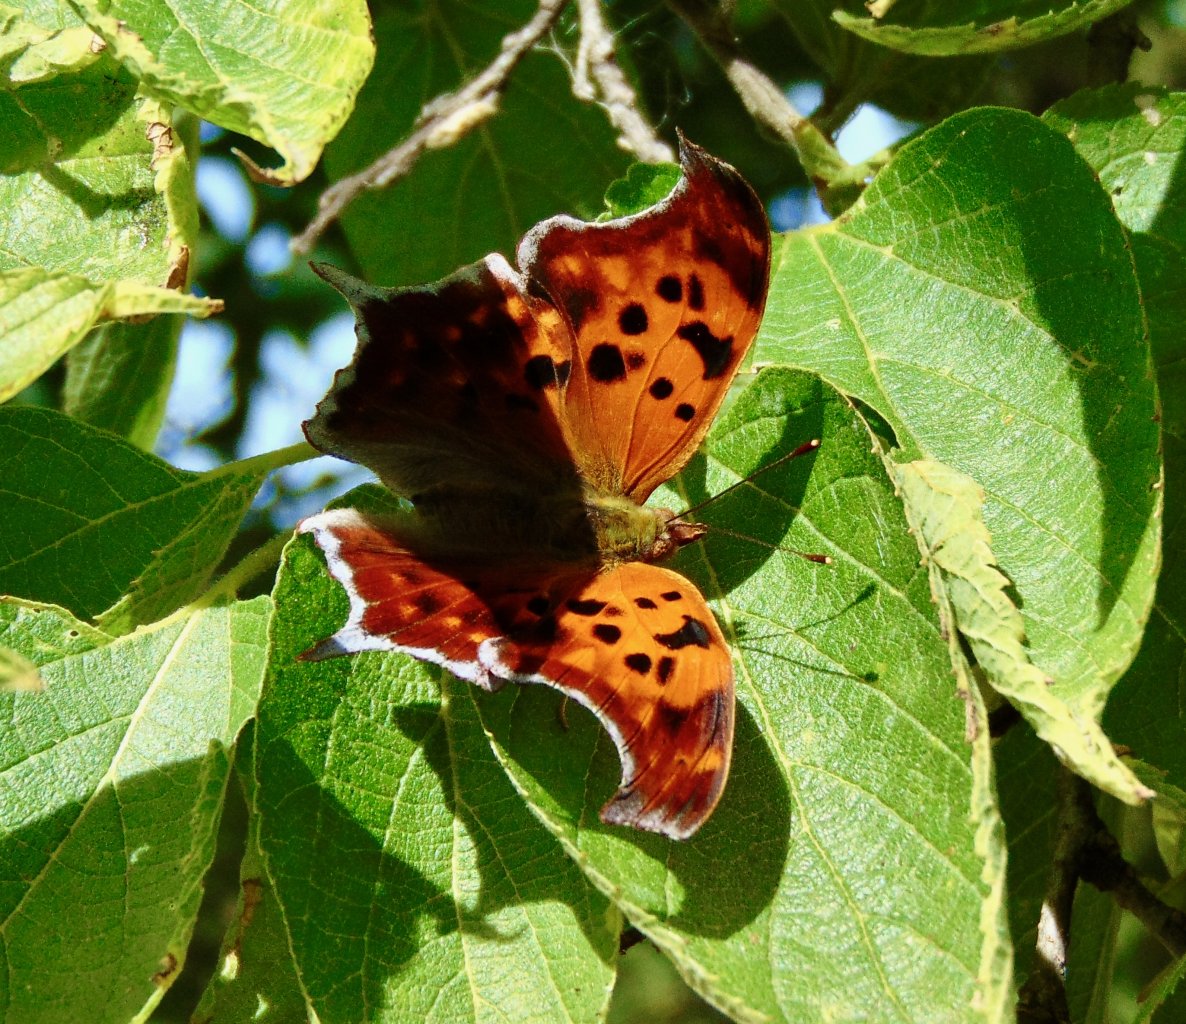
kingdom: Animalia
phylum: Arthropoda
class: Insecta
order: Lepidoptera
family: Nymphalidae
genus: Polygonia
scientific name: Polygonia interrogationis
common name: Question Mark
